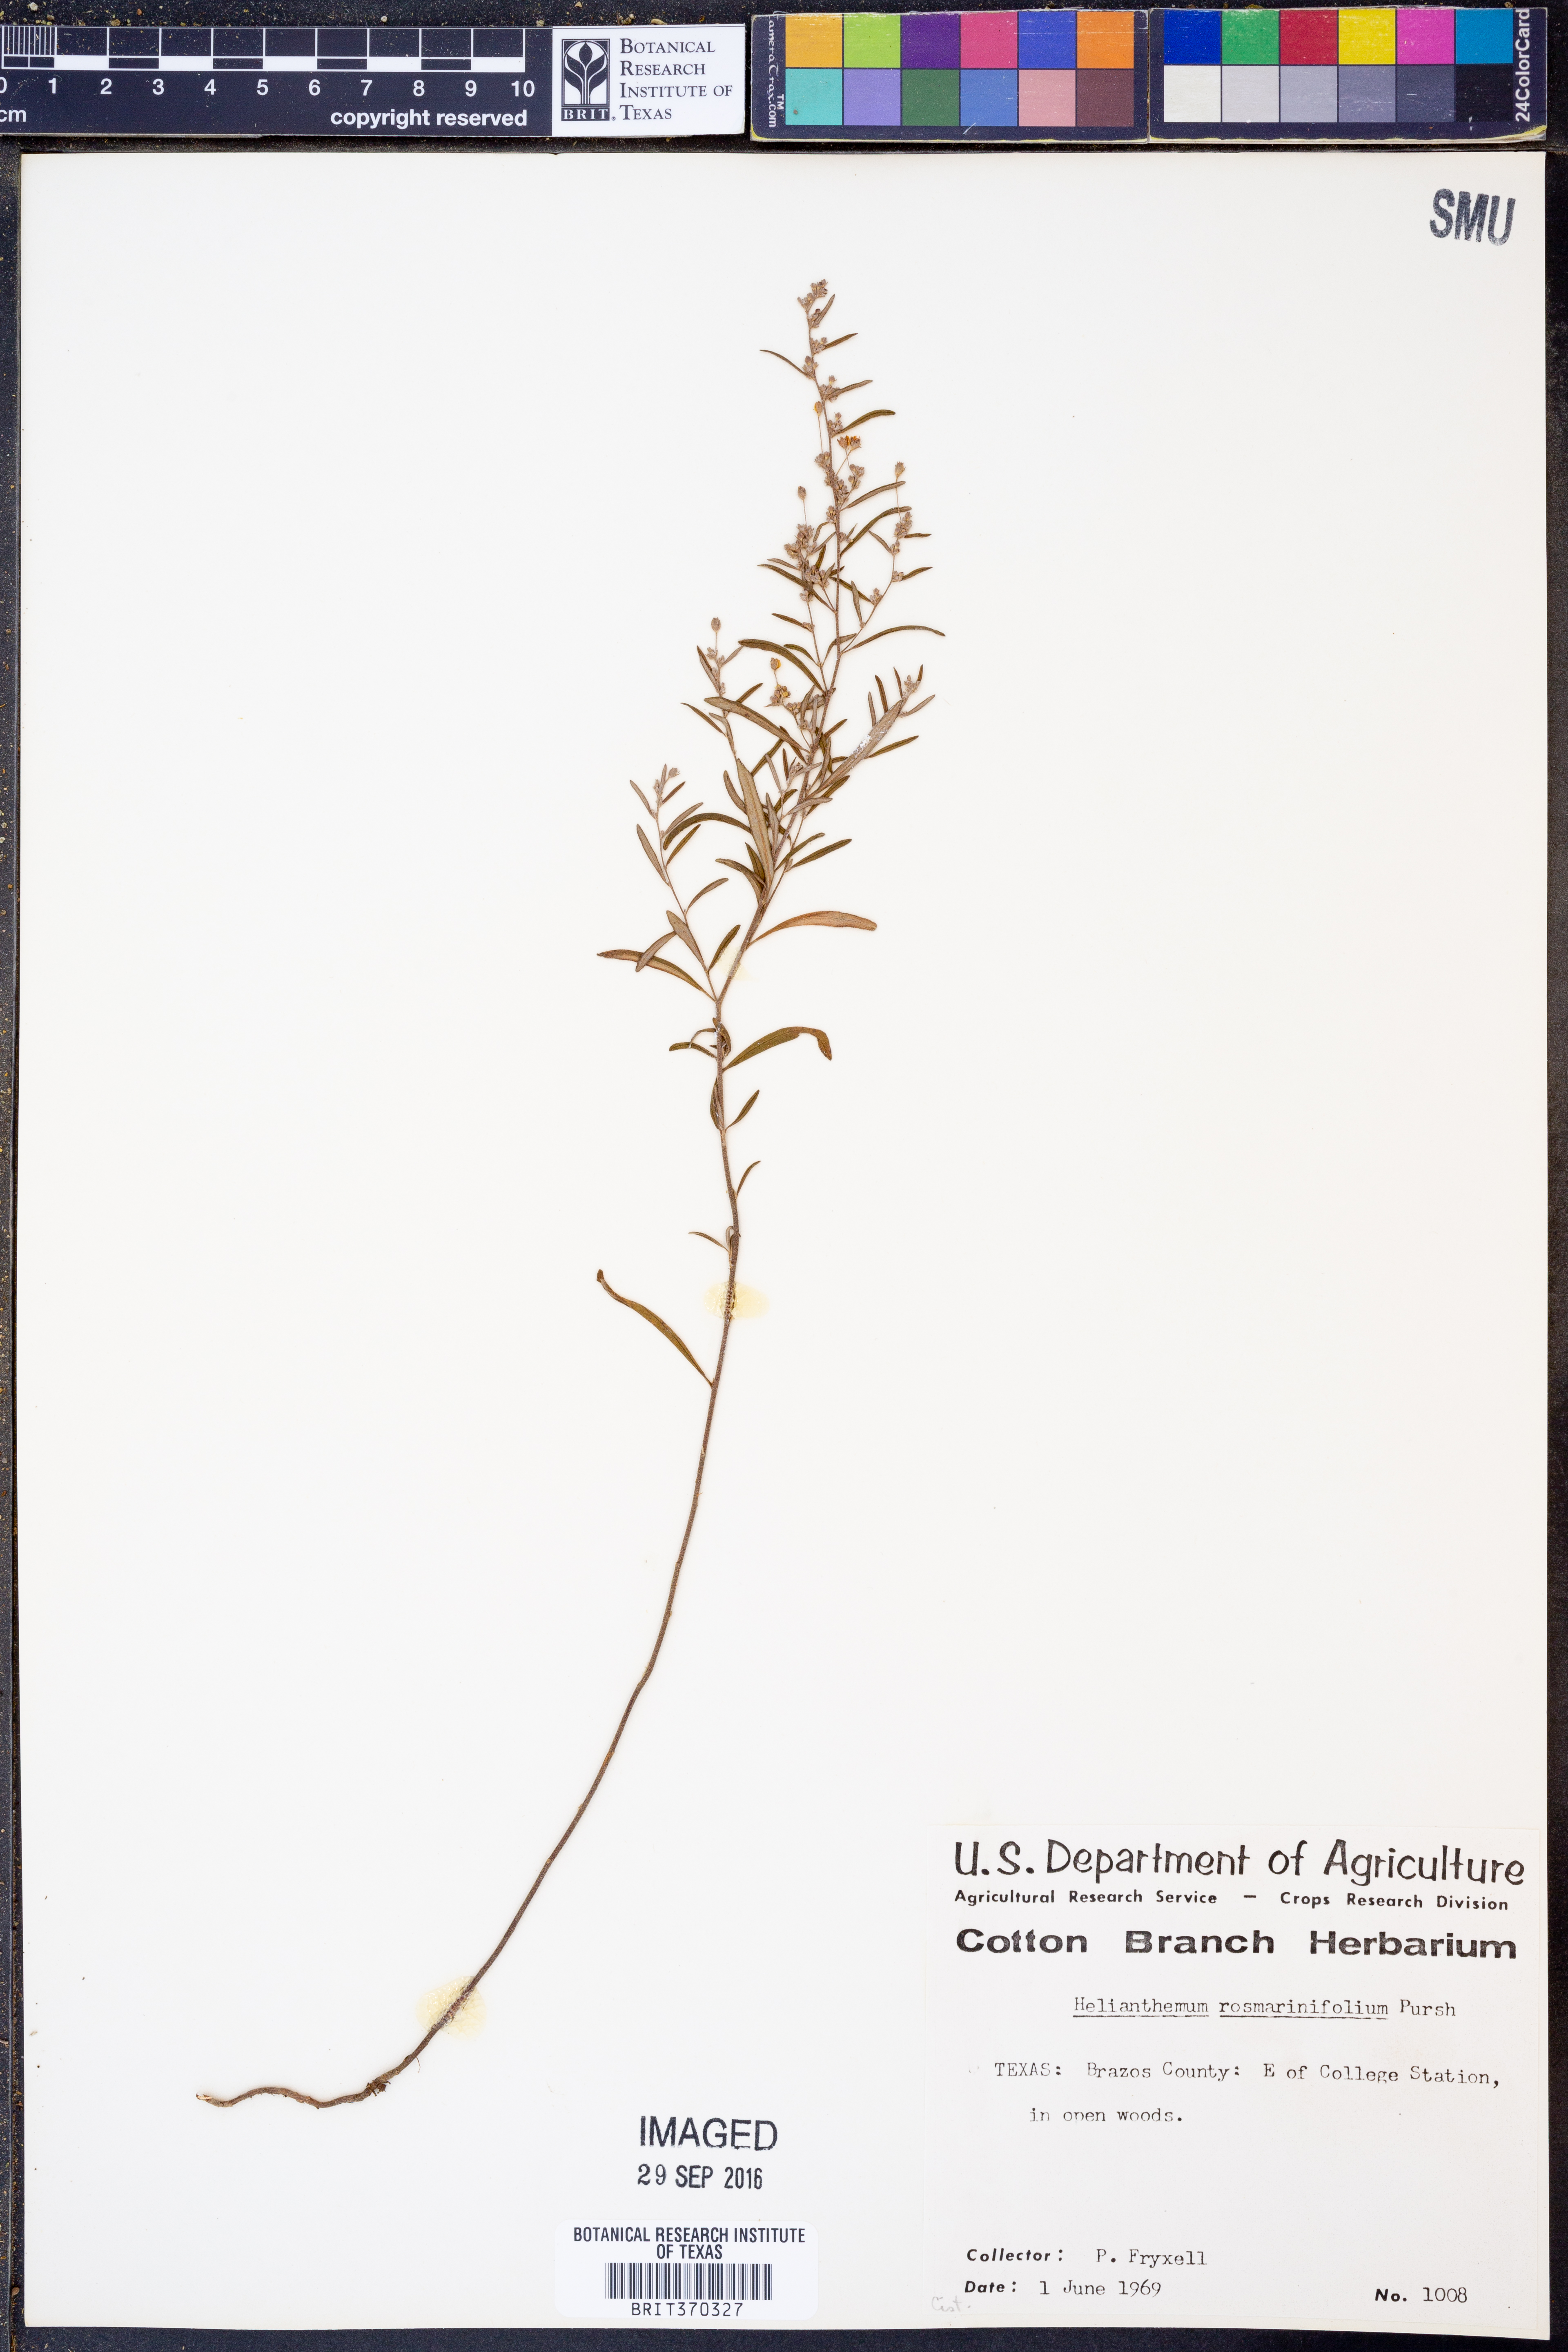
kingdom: Plantae
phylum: Tracheophyta
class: Magnoliopsida
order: Malvales
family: Cistaceae
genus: Crocanthemum
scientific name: Crocanthemum rosmarinifolium
